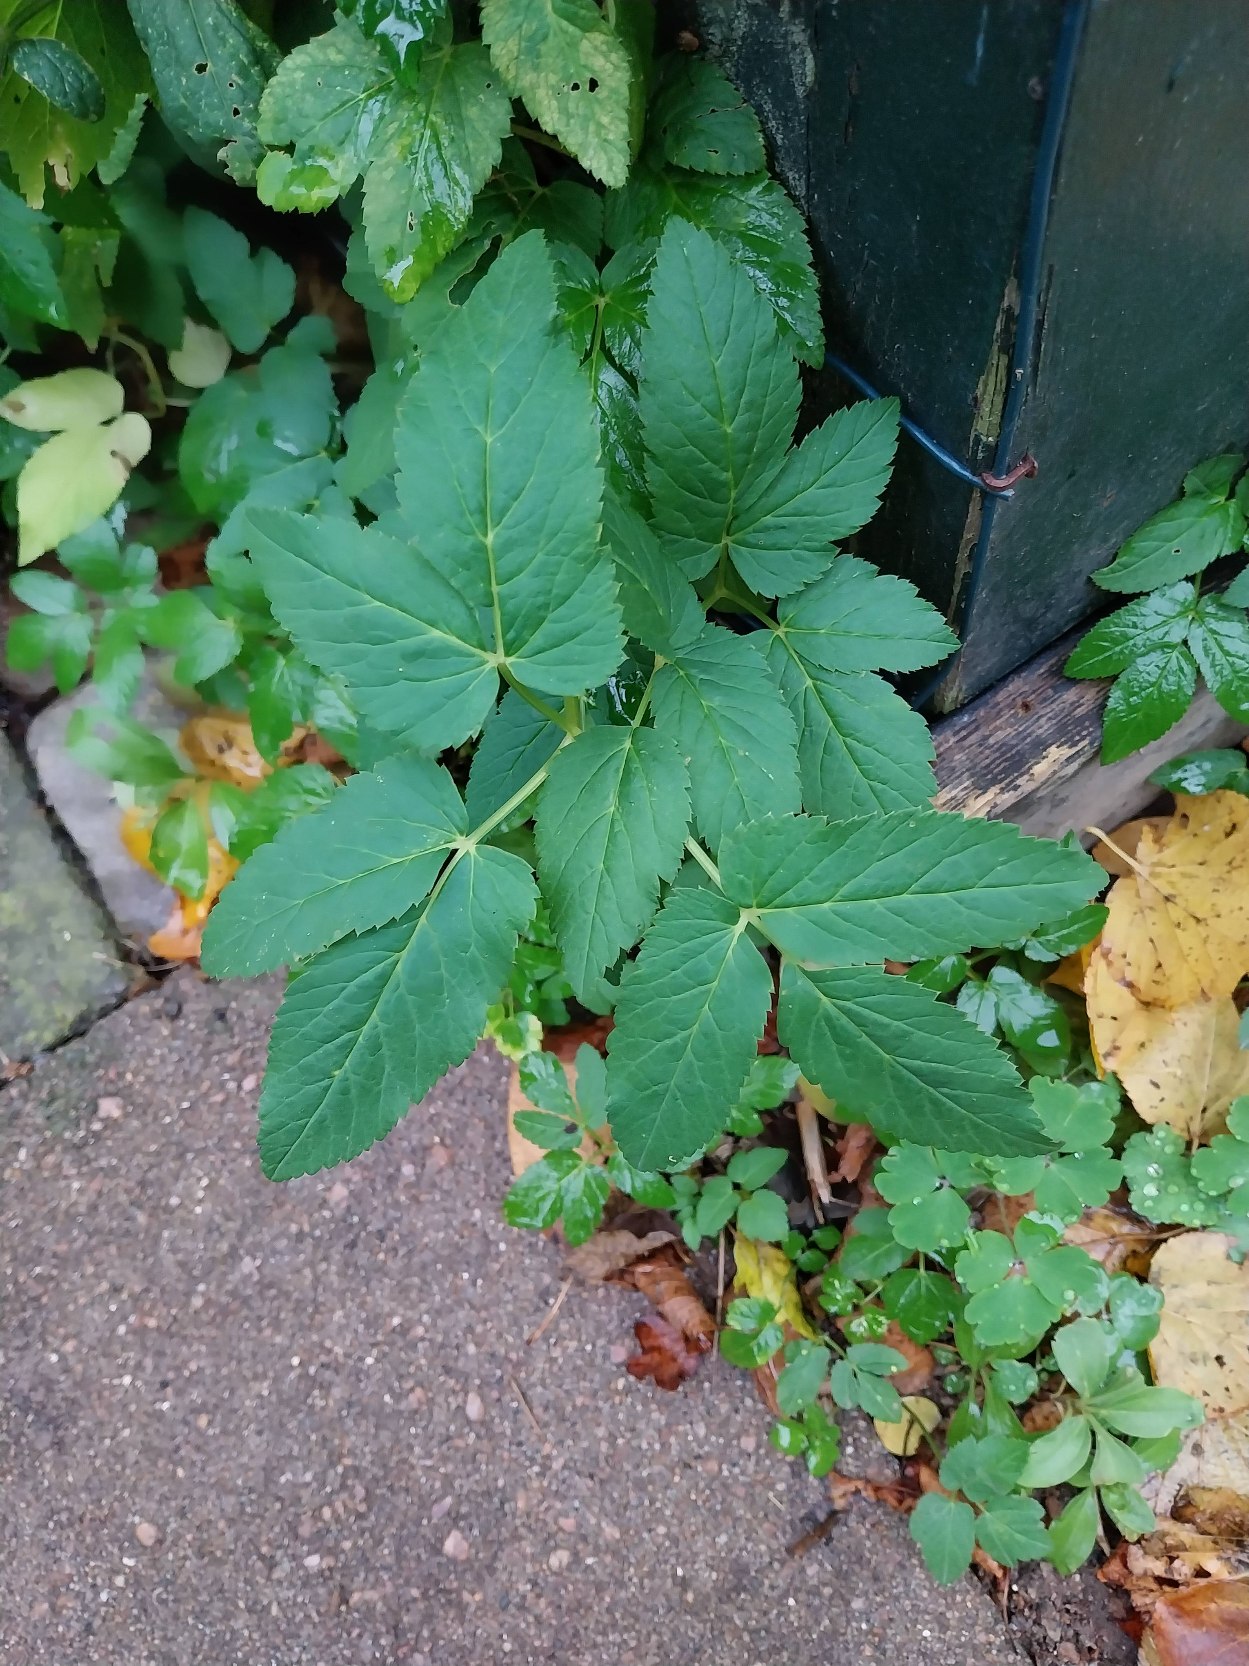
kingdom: Plantae
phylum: Tracheophyta
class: Magnoliopsida
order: Apiales
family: Apiaceae
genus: Aegopodium
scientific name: Aegopodium podagraria
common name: Skvalderkål
